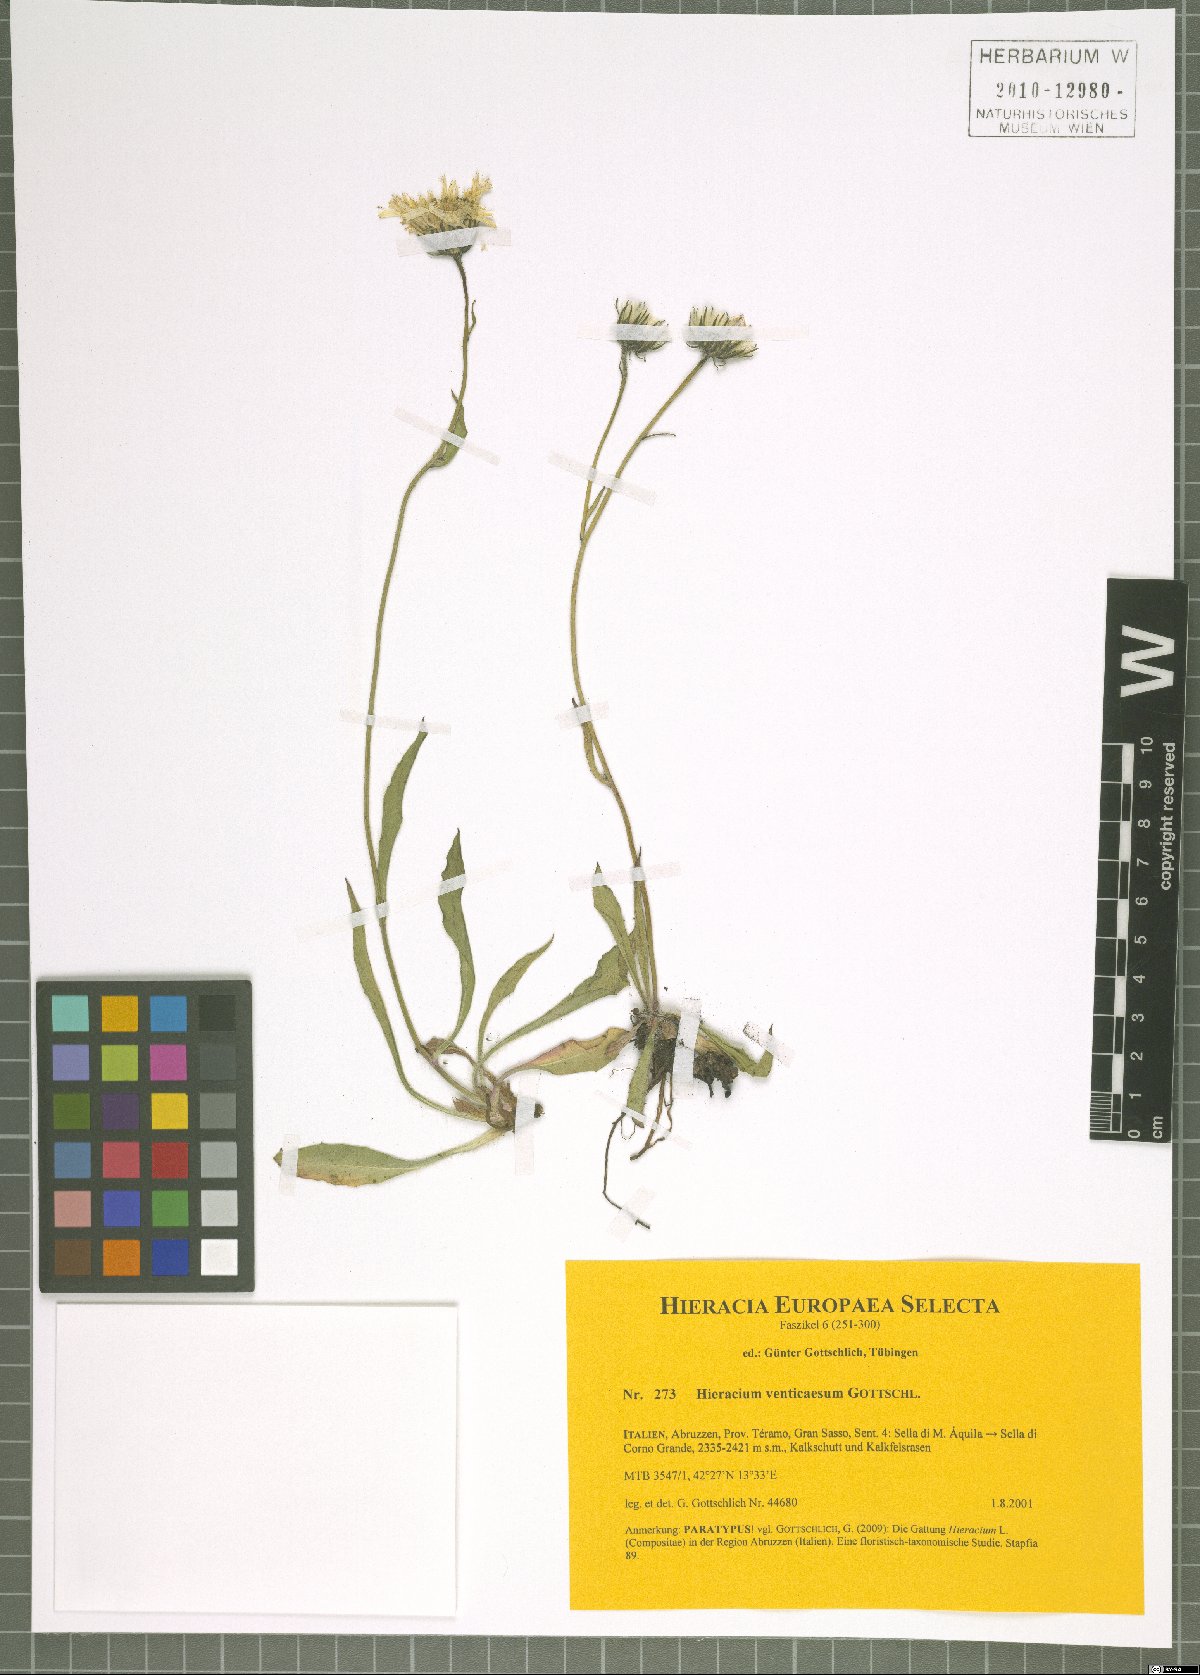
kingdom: Plantae
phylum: Tracheophyta
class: Magnoliopsida
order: Asterales
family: Asteraceae
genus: Hieracium
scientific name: Hieracium venticaesum
